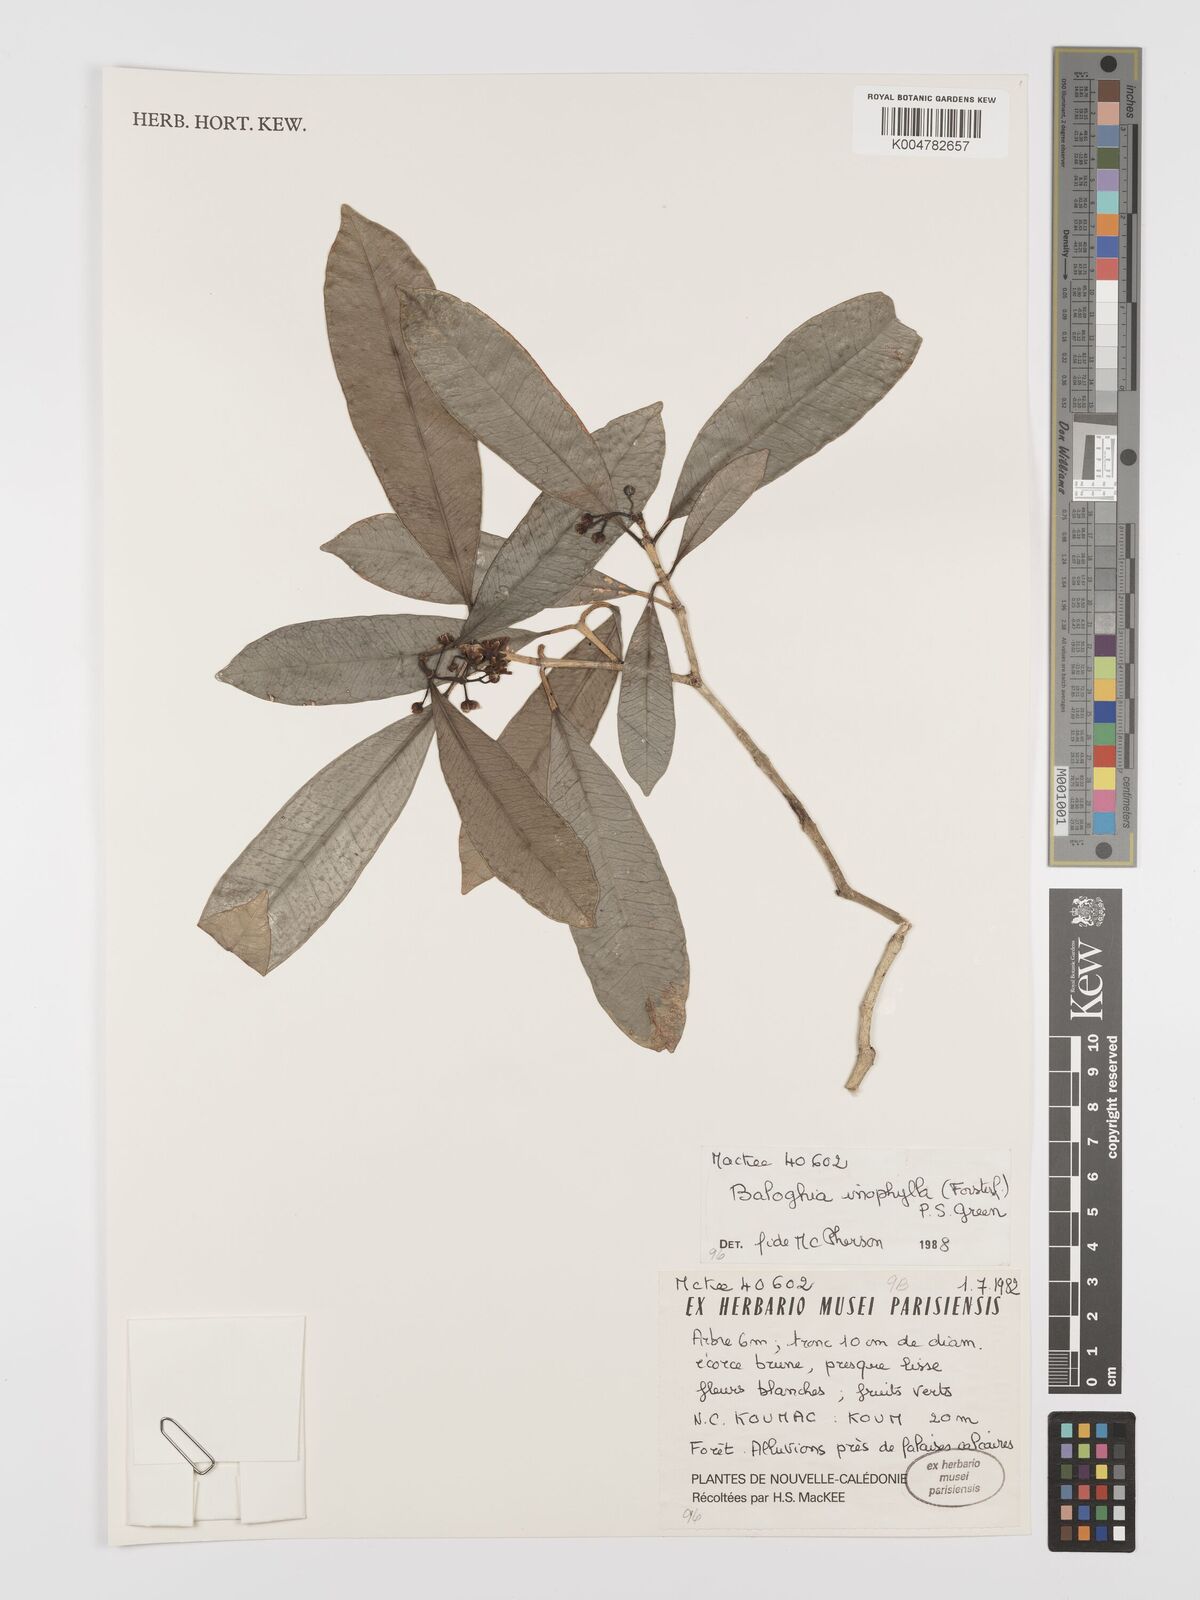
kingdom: Plantae
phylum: Tracheophyta
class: Magnoliopsida
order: Malpighiales
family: Euphorbiaceae
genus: Baloghia
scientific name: Baloghia inophylla
